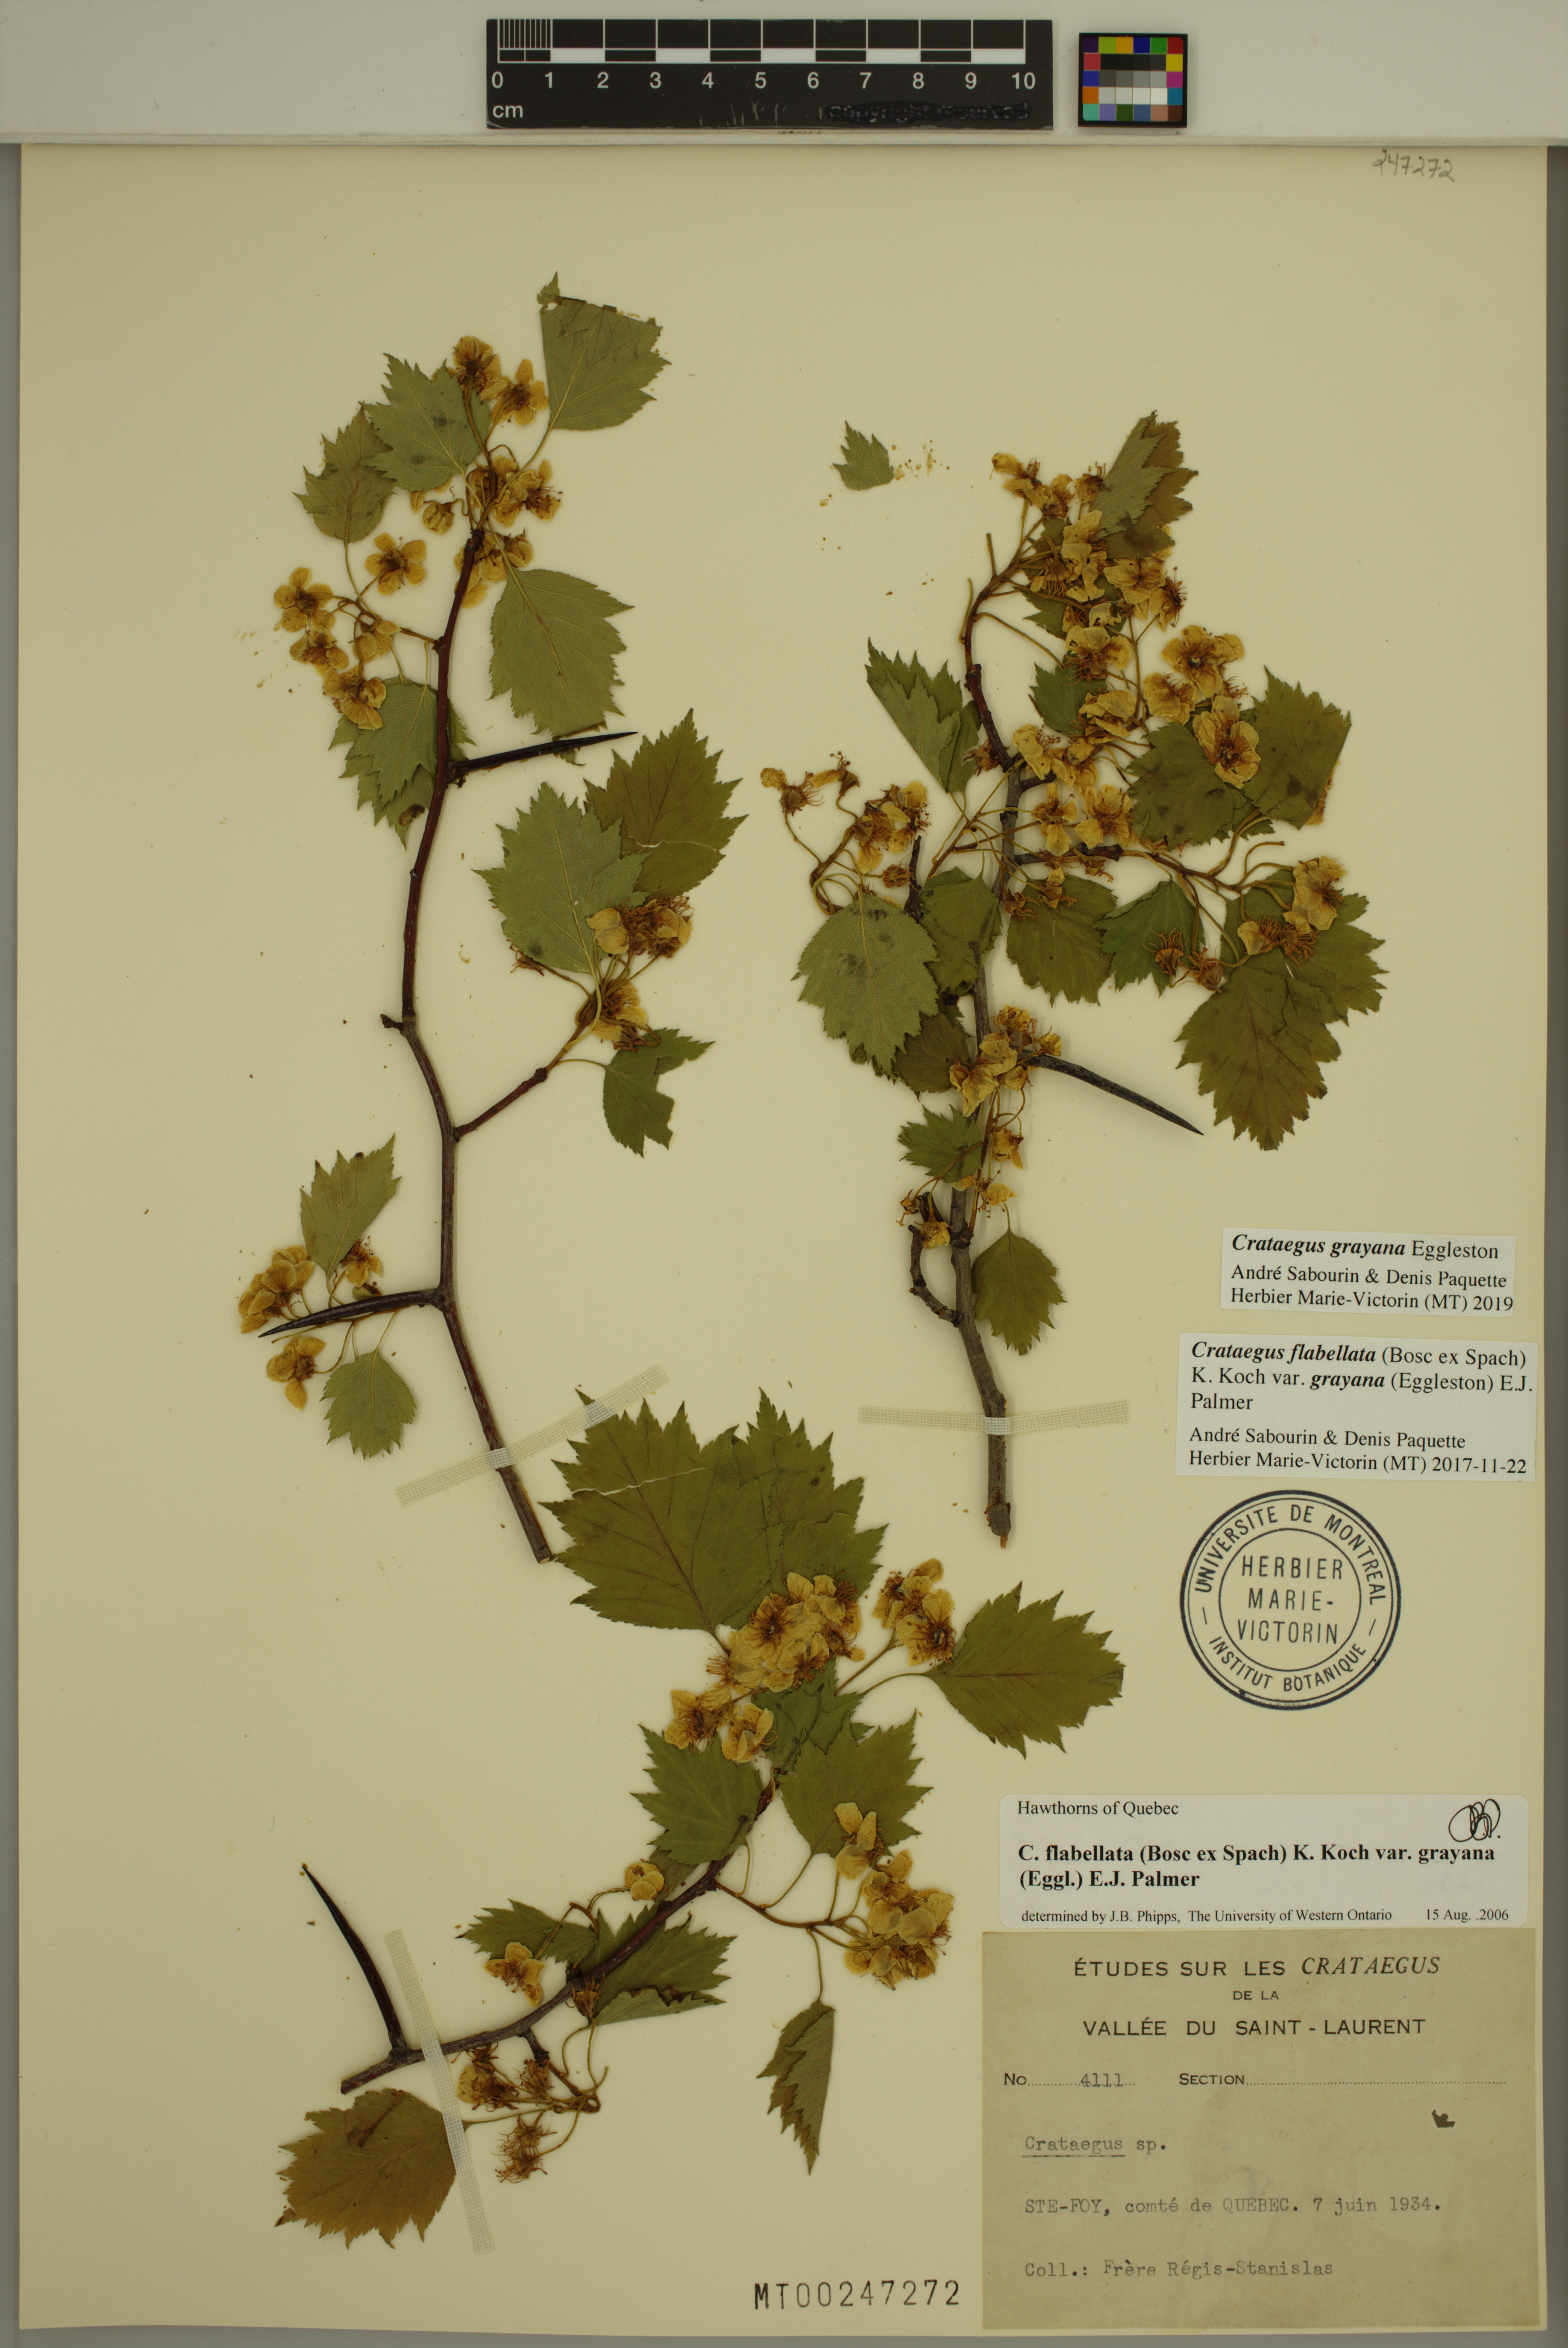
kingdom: Plantae
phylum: Tracheophyta
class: Magnoliopsida
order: Rosales
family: Rosaceae
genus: Crataegus
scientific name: Crataegus schuettei
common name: Schuette's hawthorn
